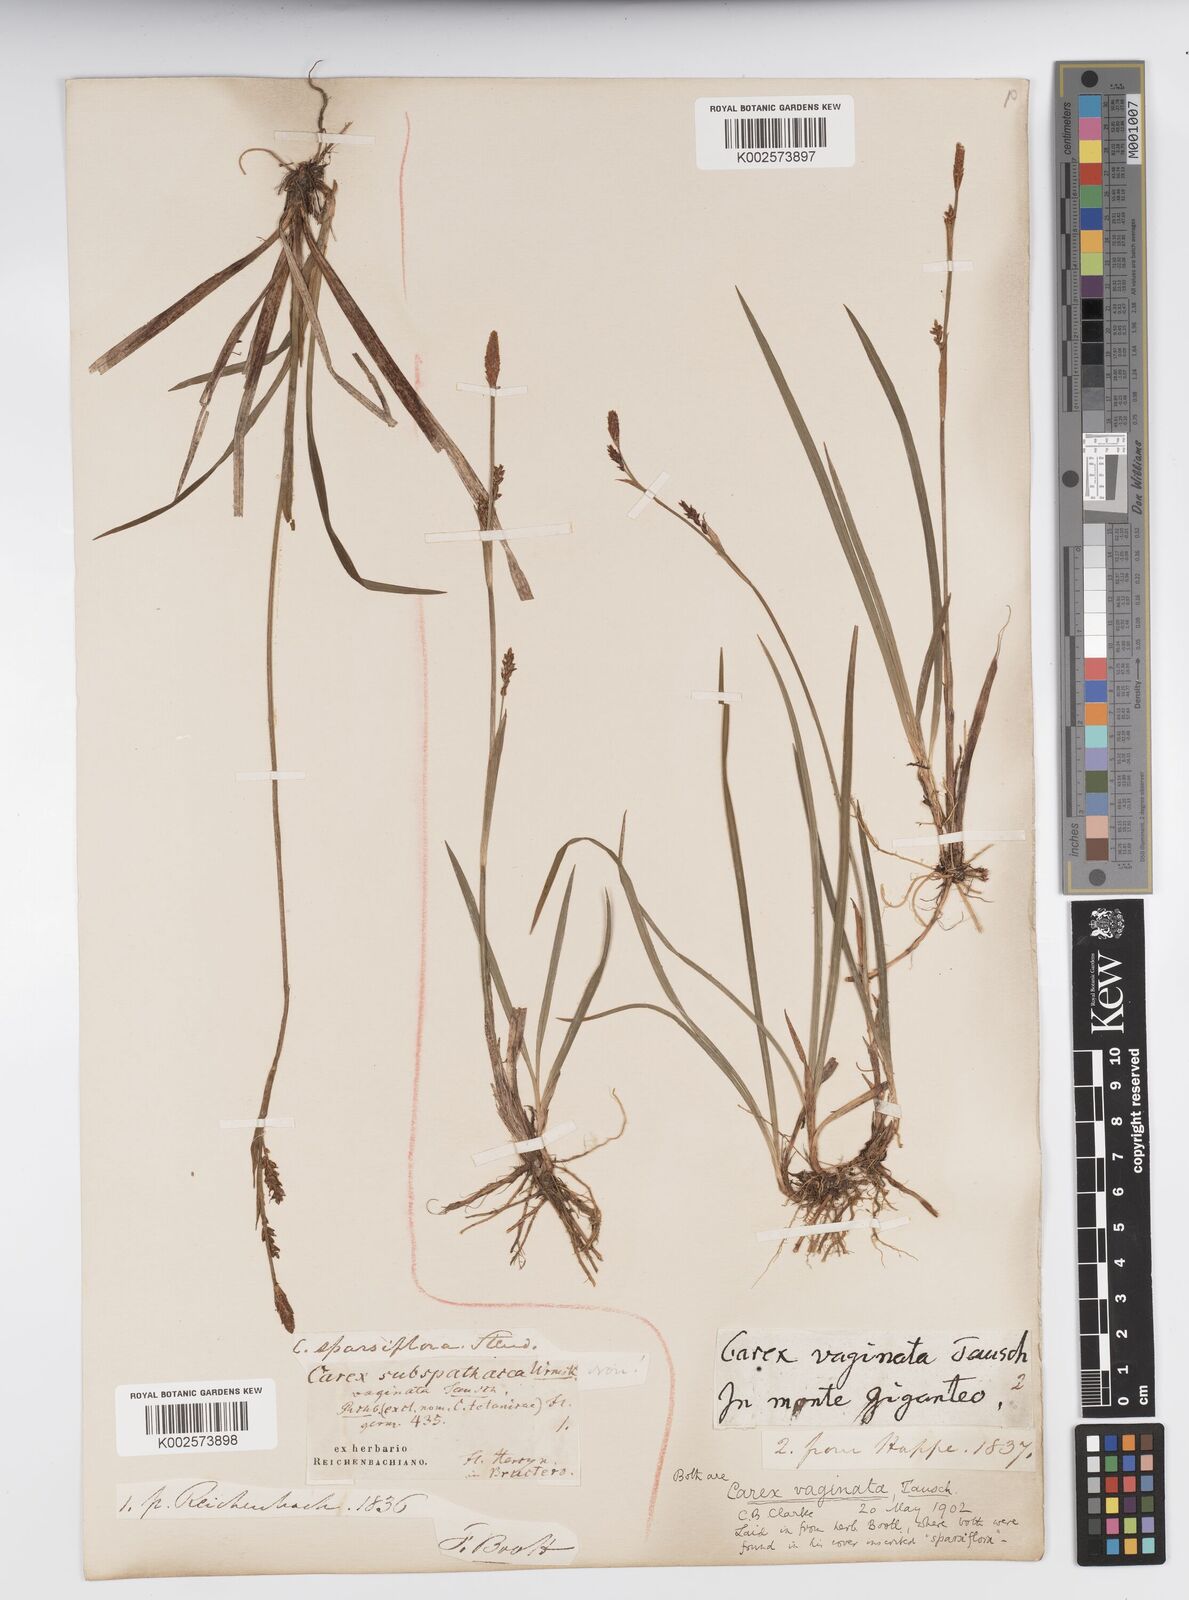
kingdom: Plantae
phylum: Tracheophyta
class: Liliopsida
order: Poales
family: Cyperaceae
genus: Carex
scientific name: Carex vaginata
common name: Sheathed sedge
